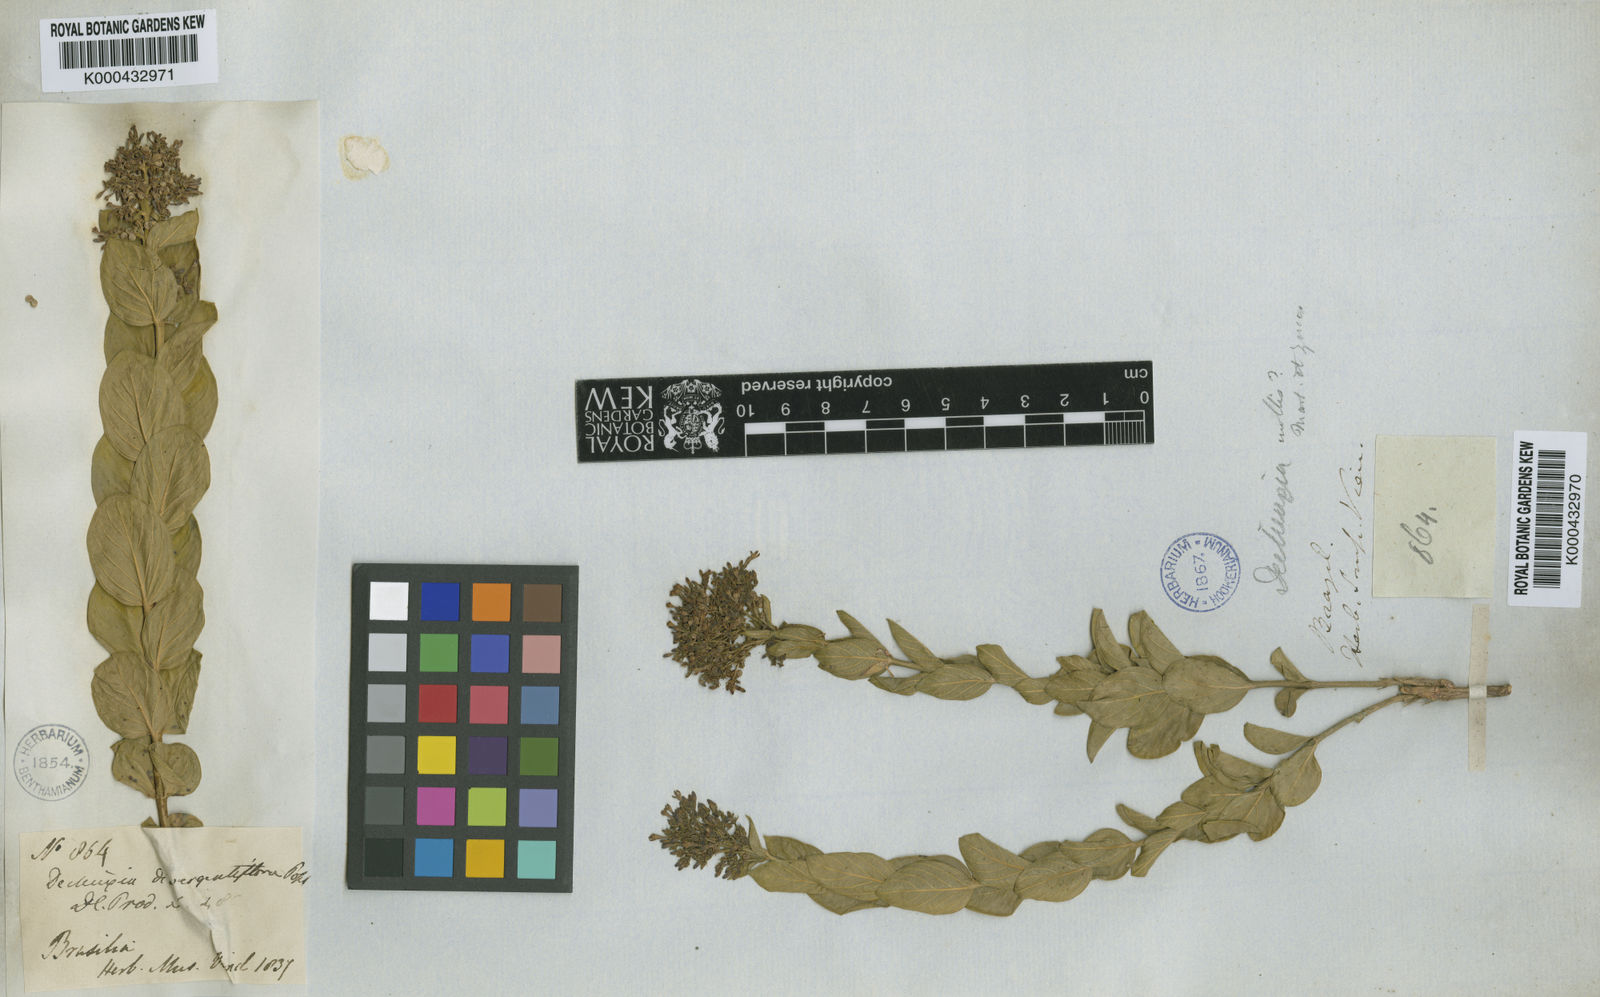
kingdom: Plantae
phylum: Tracheophyta
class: Magnoliopsida
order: Gentianales
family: Rubiaceae
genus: Declieuxia
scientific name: Declieuxia
